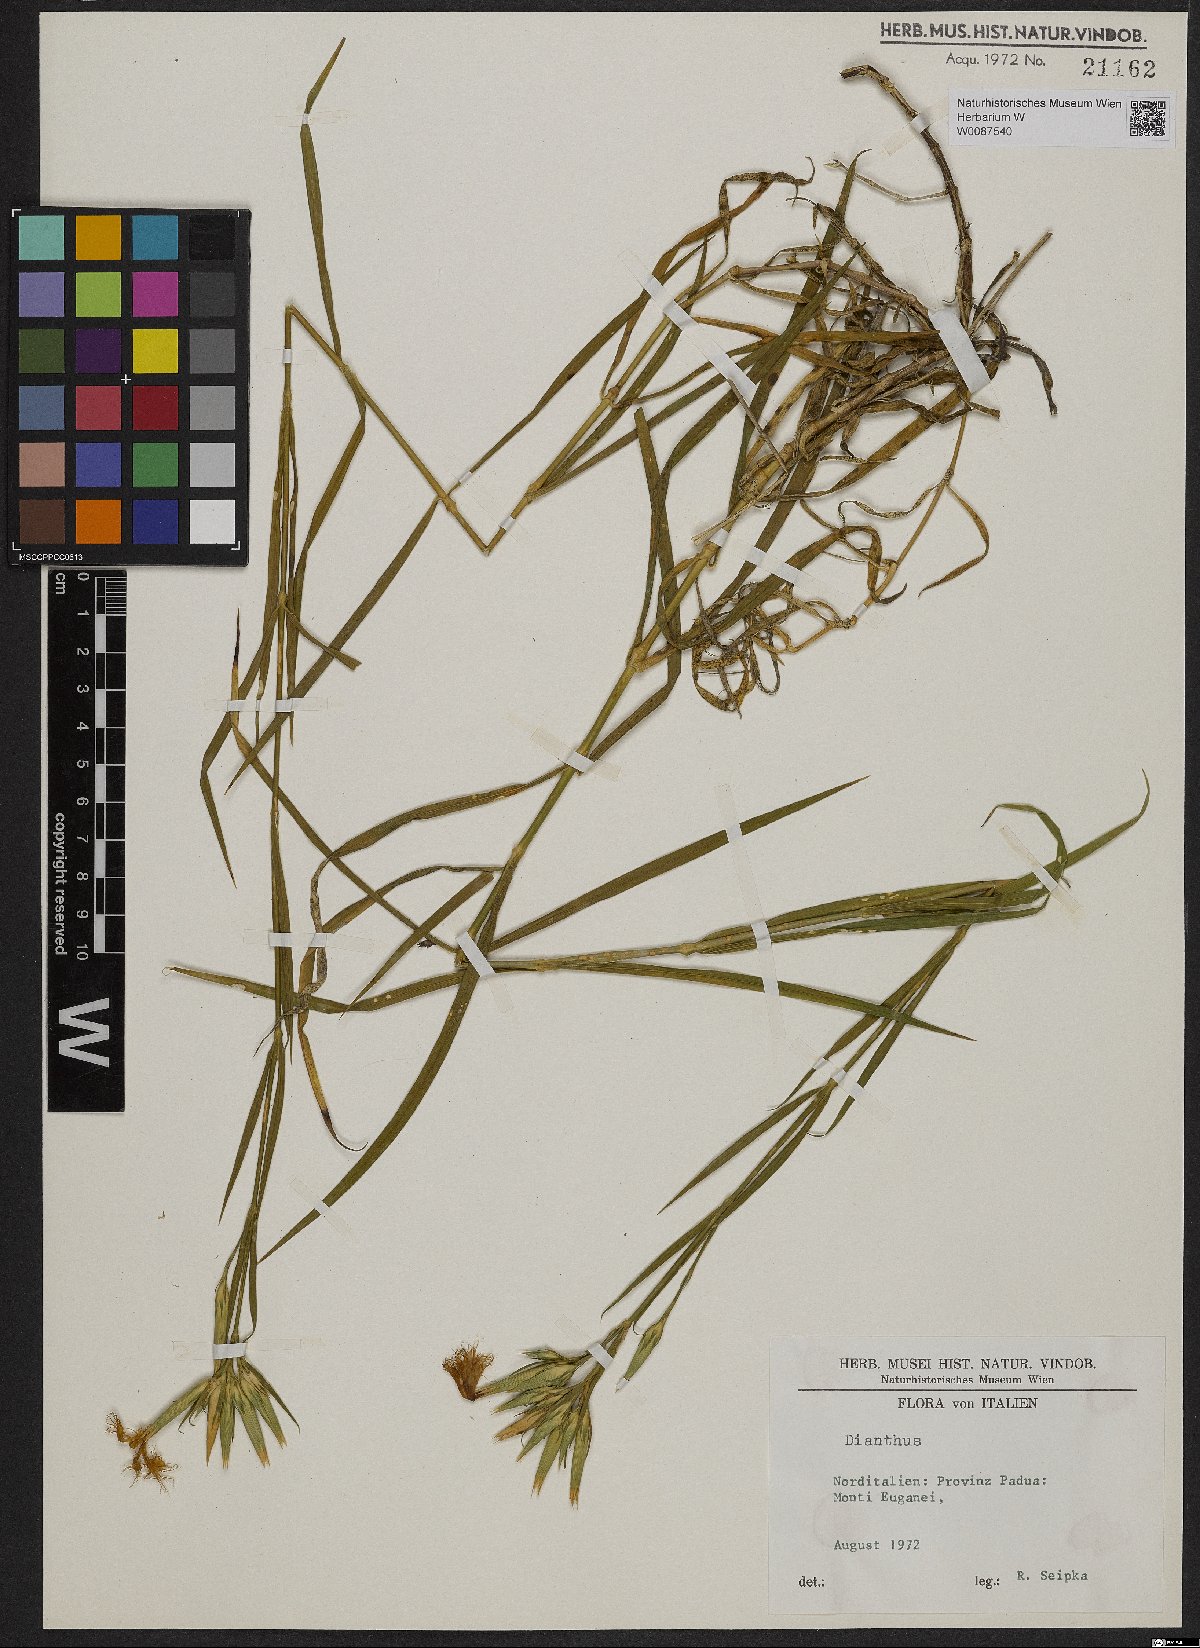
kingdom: Plantae
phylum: Tracheophyta
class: Magnoliopsida
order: Caryophyllales
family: Caryophyllaceae
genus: Dianthus
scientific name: Dianthus
